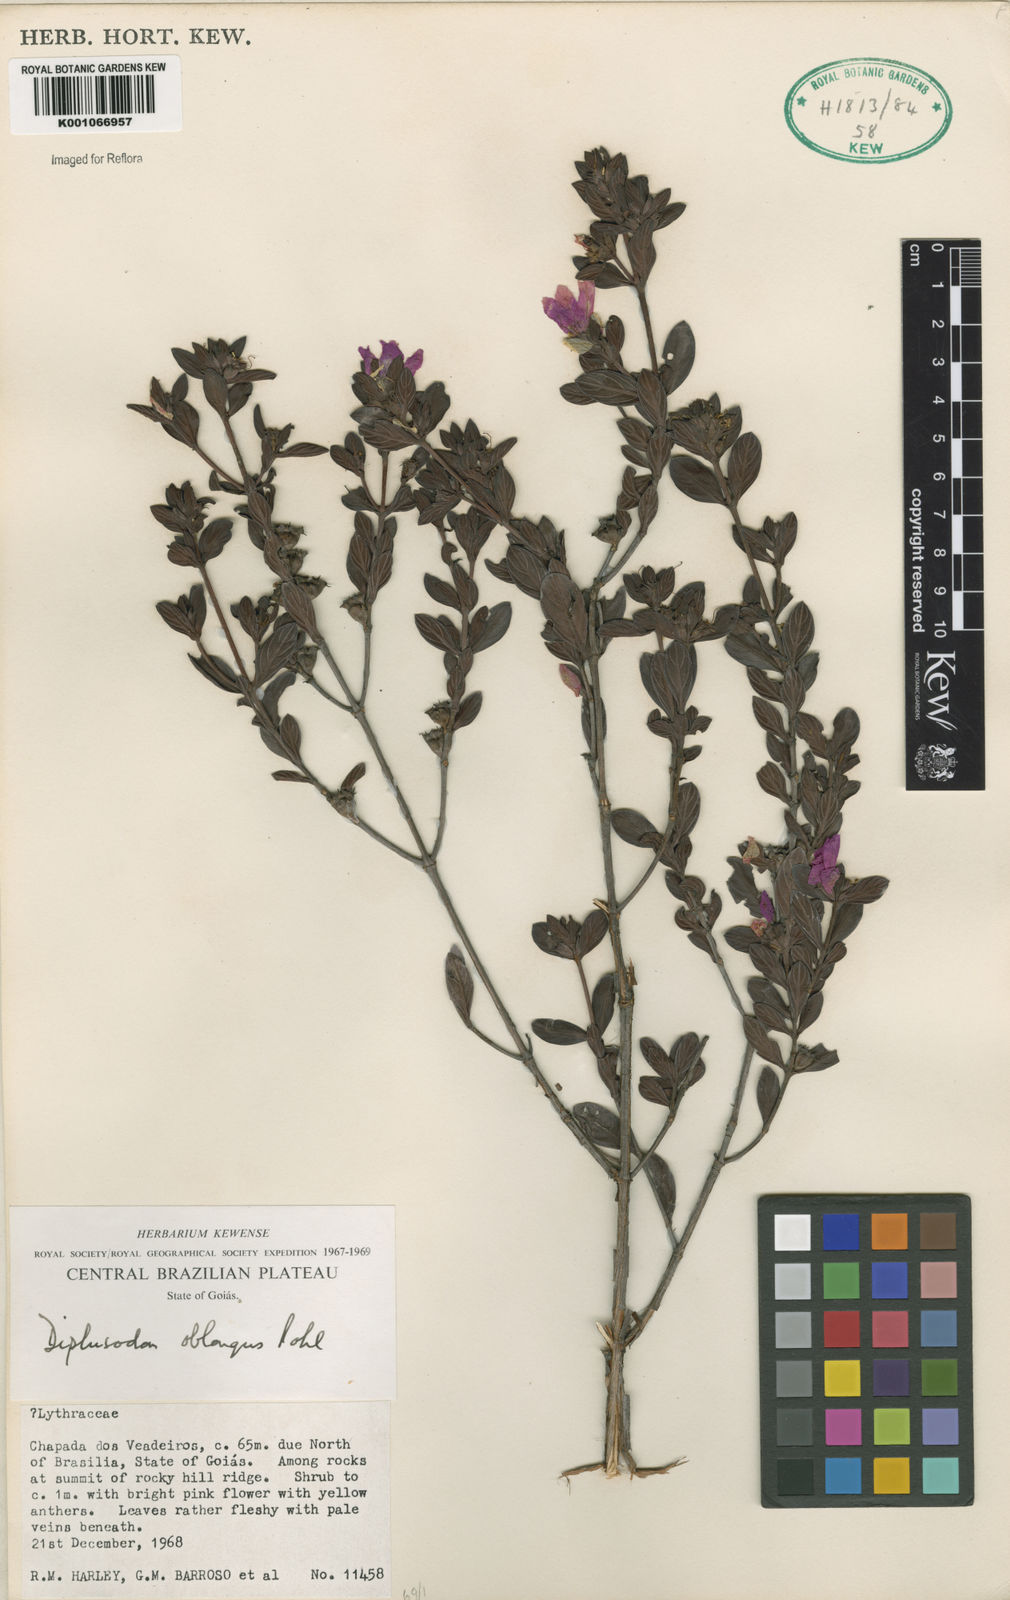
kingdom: Plantae
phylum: Tracheophyta
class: Magnoliopsida
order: Myrtales
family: Lythraceae
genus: Diplusodon
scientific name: Diplusodon oblongus
